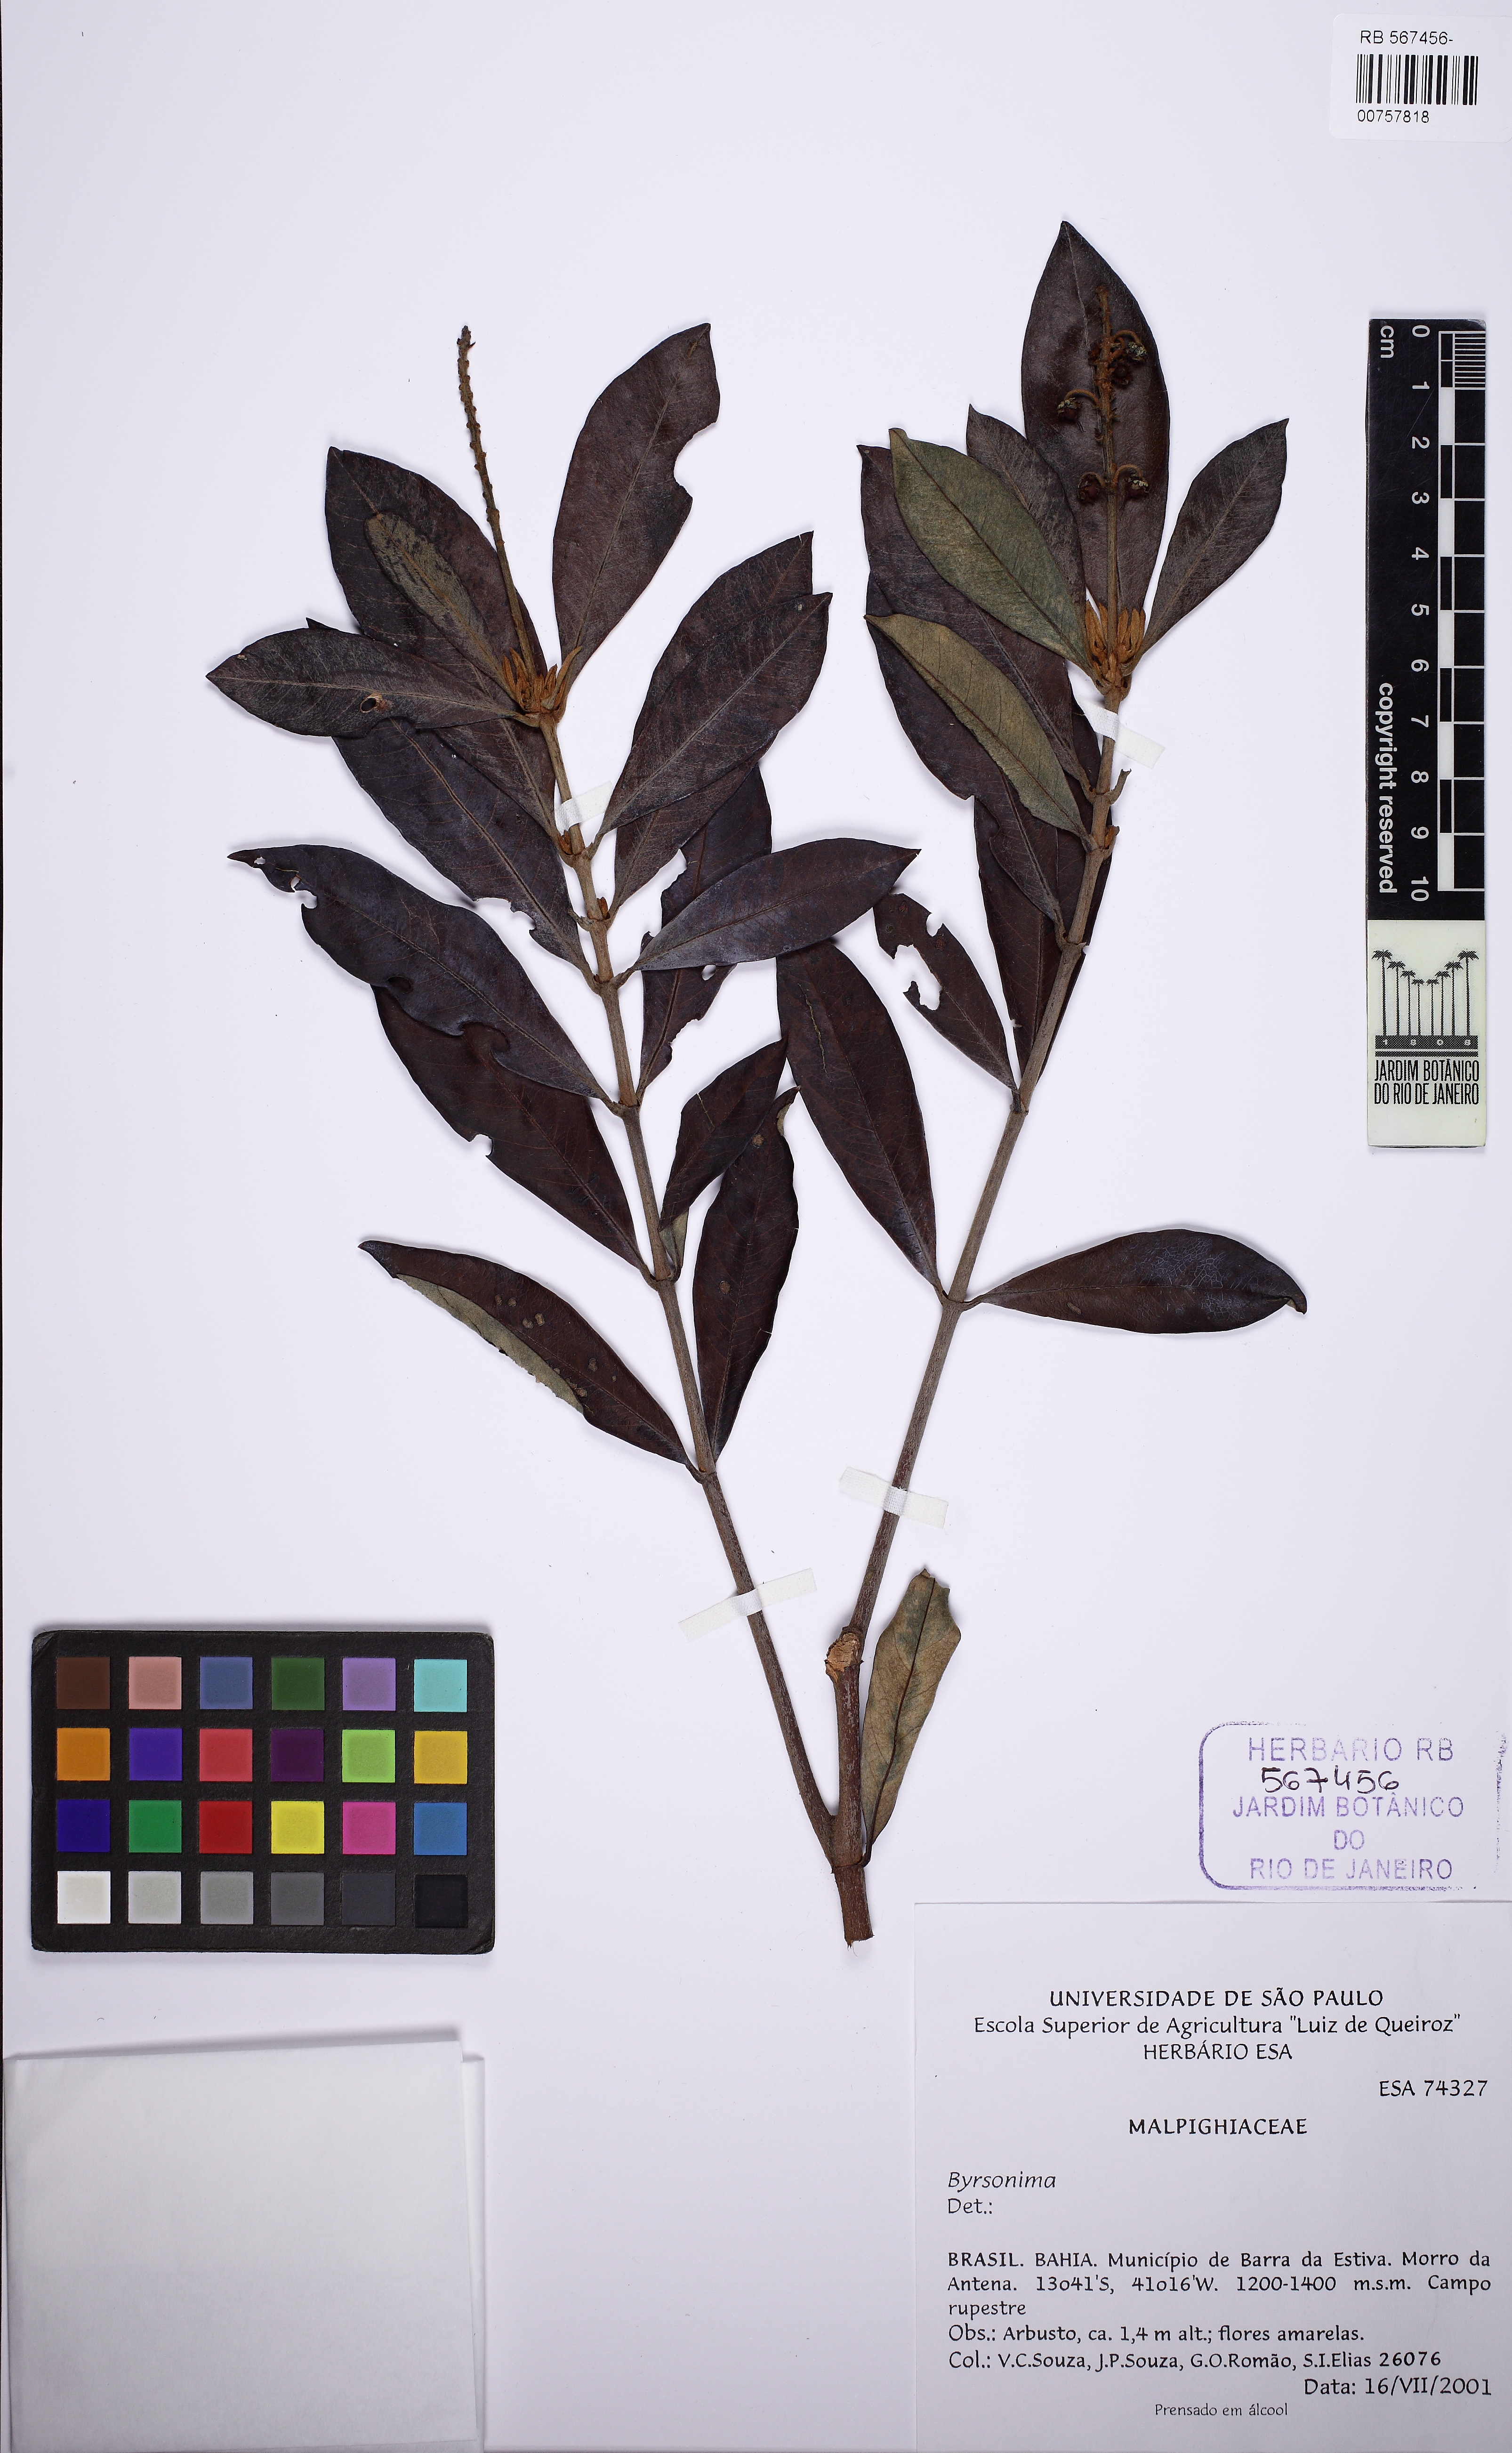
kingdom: Plantae
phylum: Tracheophyta
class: Magnoliopsida
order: Malpighiales
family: Malpighiaceae
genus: Byrsonima
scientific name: Byrsonima
